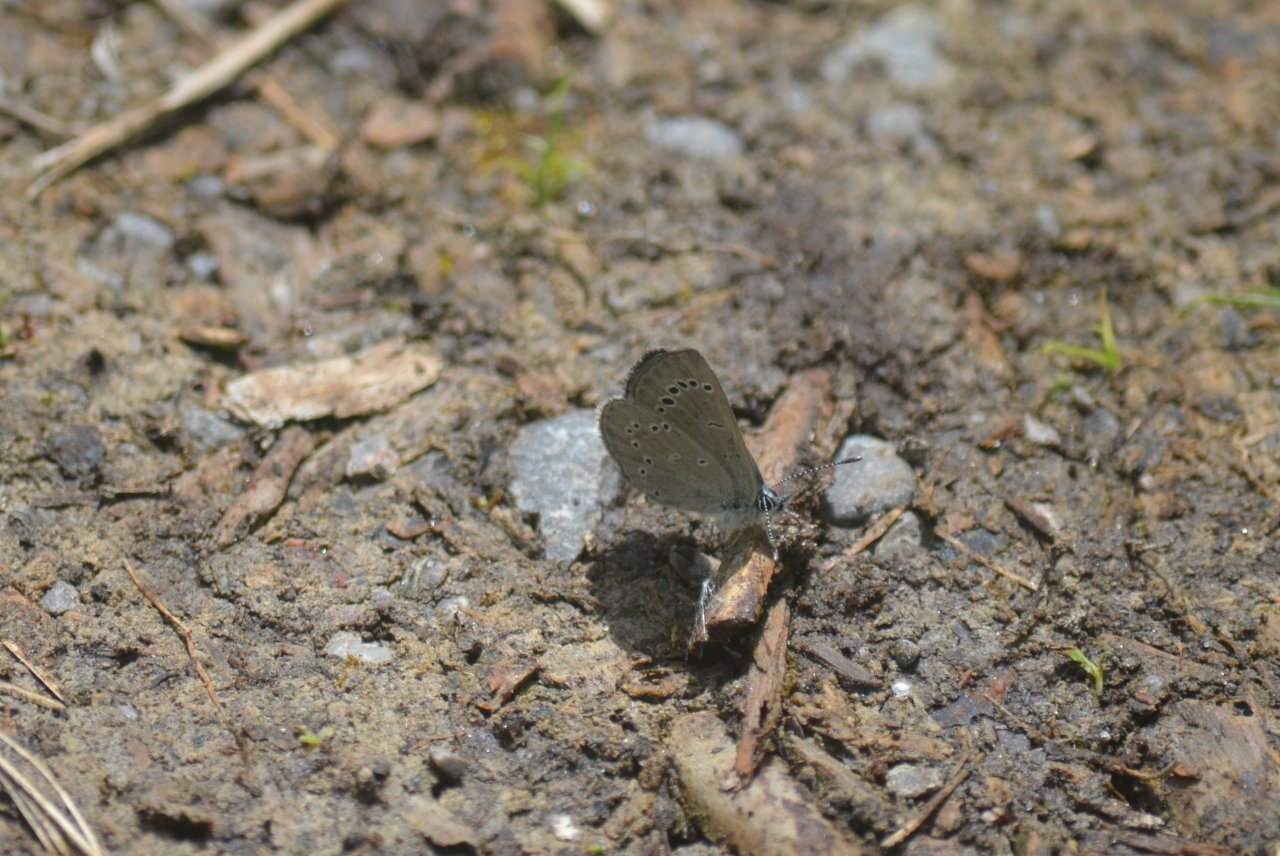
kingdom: Animalia
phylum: Arthropoda
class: Insecta
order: Lepidoptera
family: Lycaenidae
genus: Glaucopsyche
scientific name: Glaucopsyche lygdamus
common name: Silvery Blue
